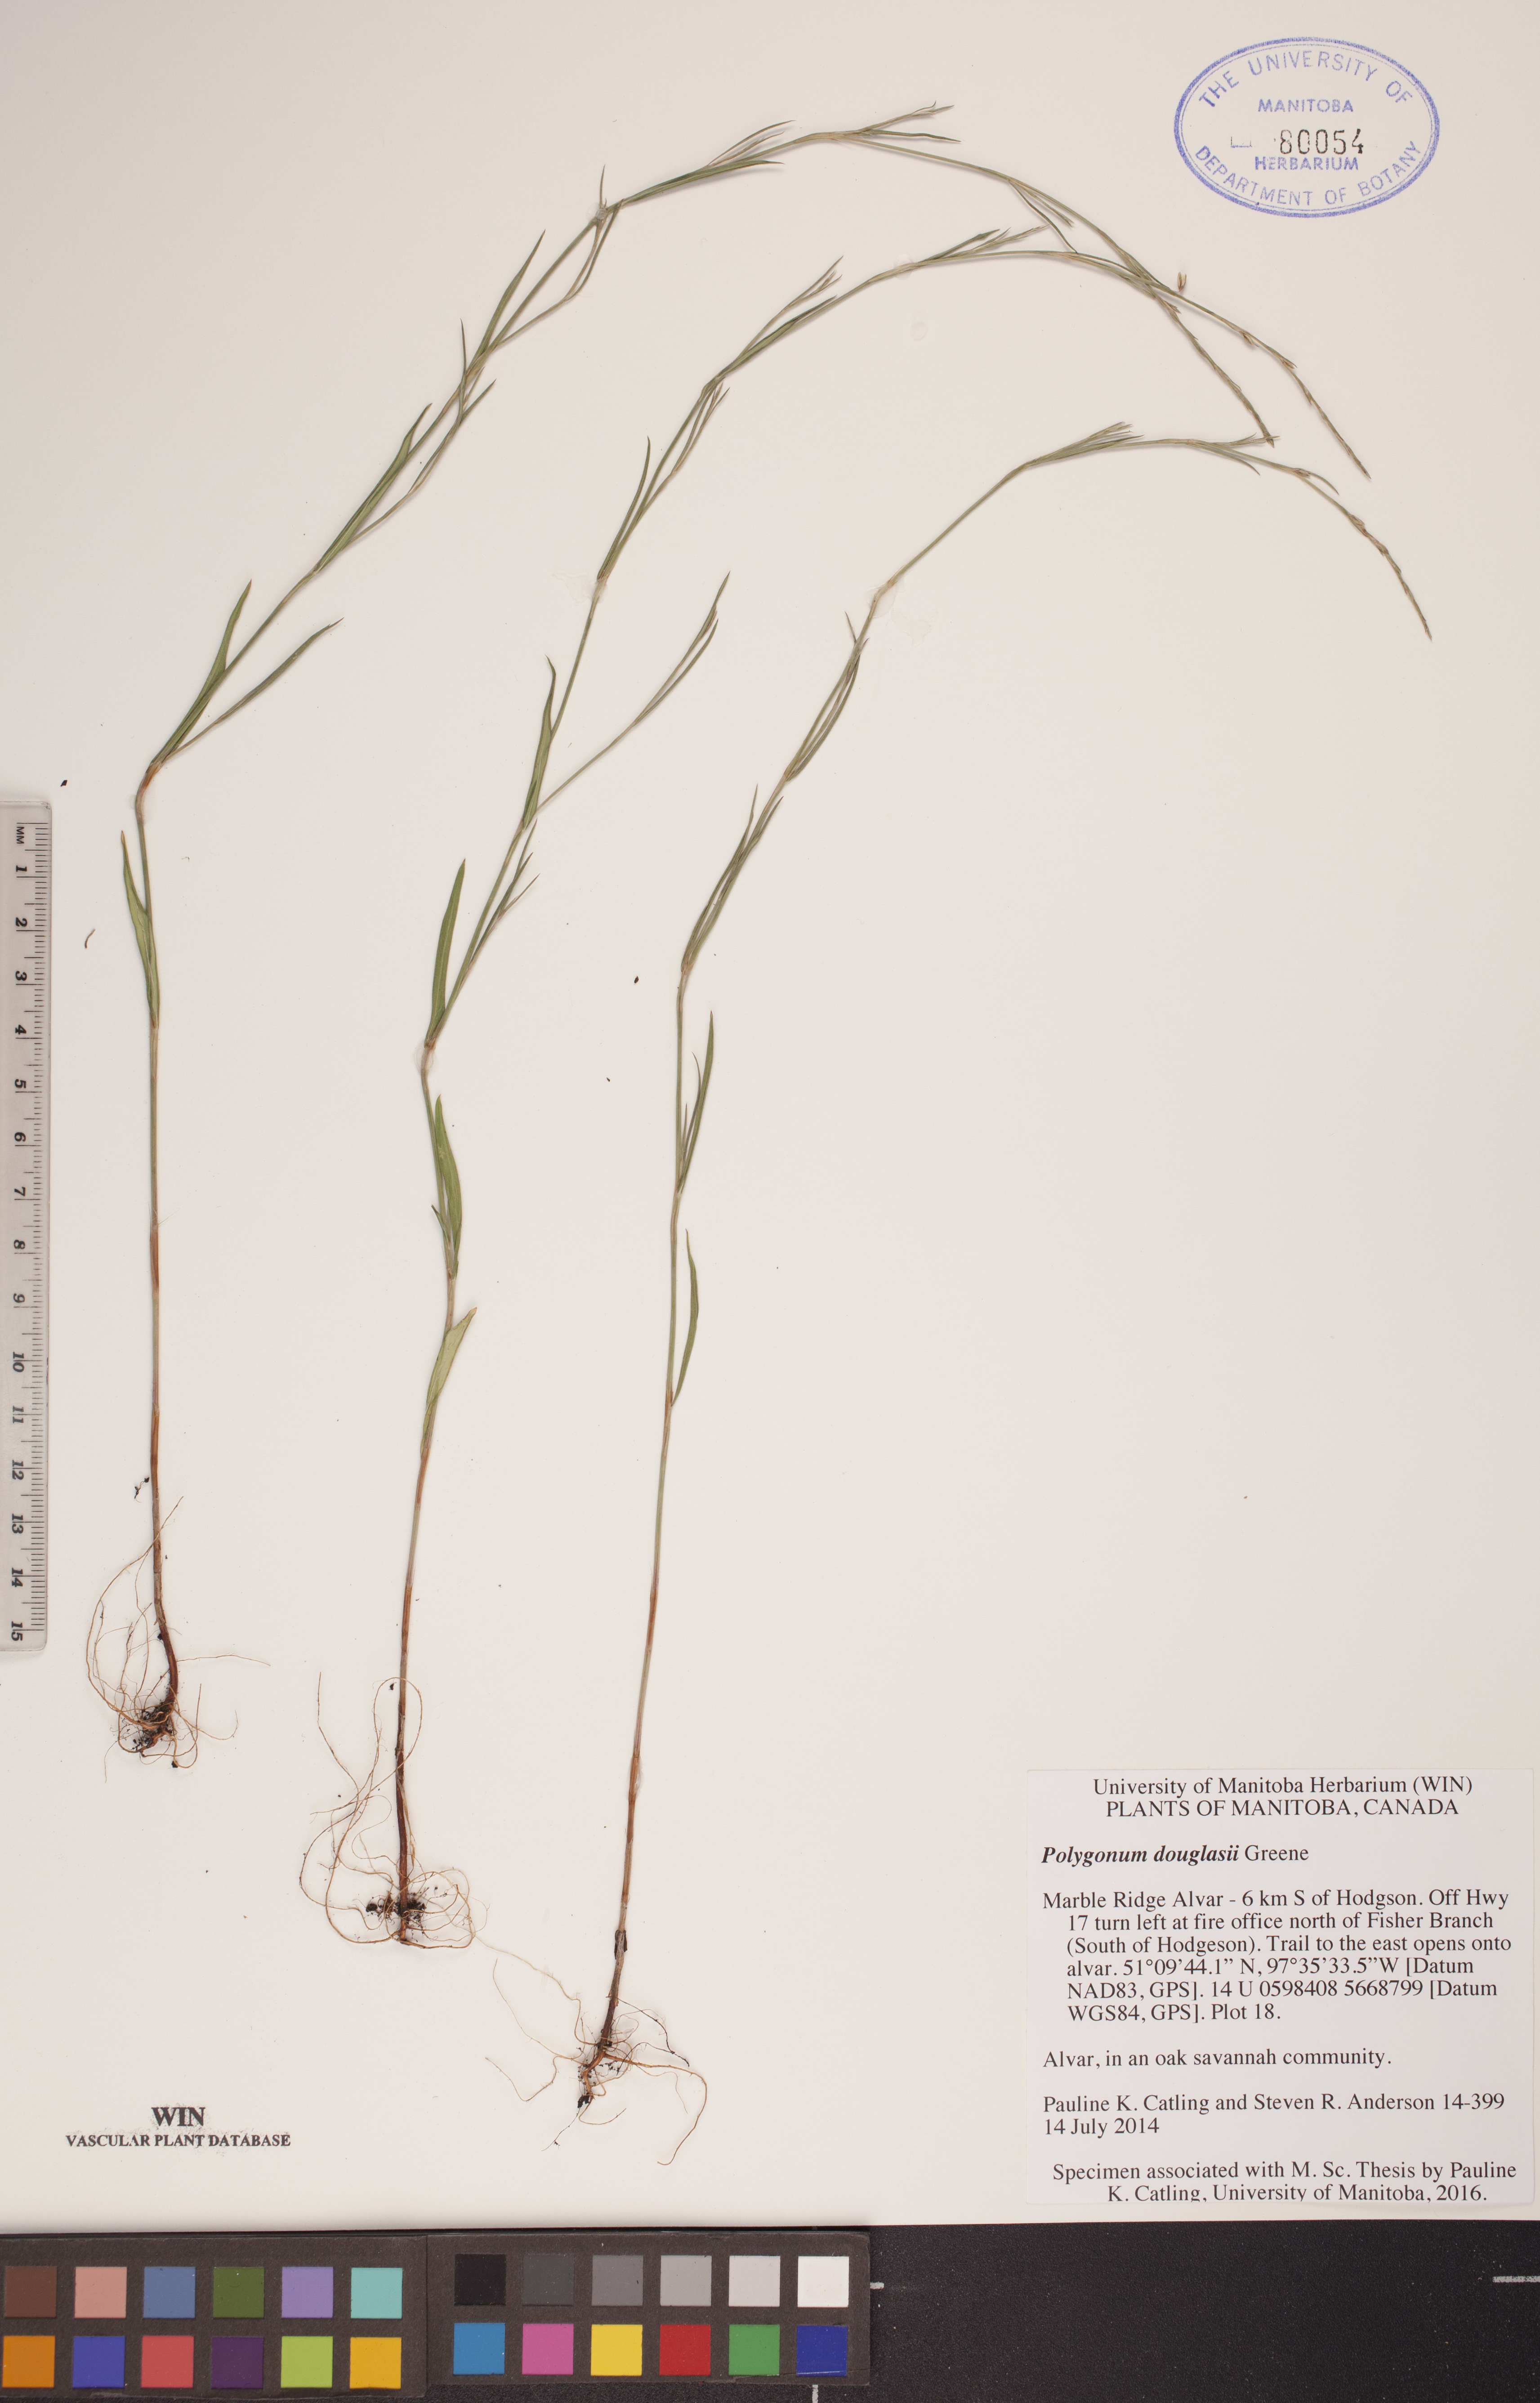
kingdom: Plantae
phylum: Tracheophyta
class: Magnoliopsida
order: Caryophyllales
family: Polygonaceae
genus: Polygonum
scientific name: Polygonum douglasii
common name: Douglas' knotweed
